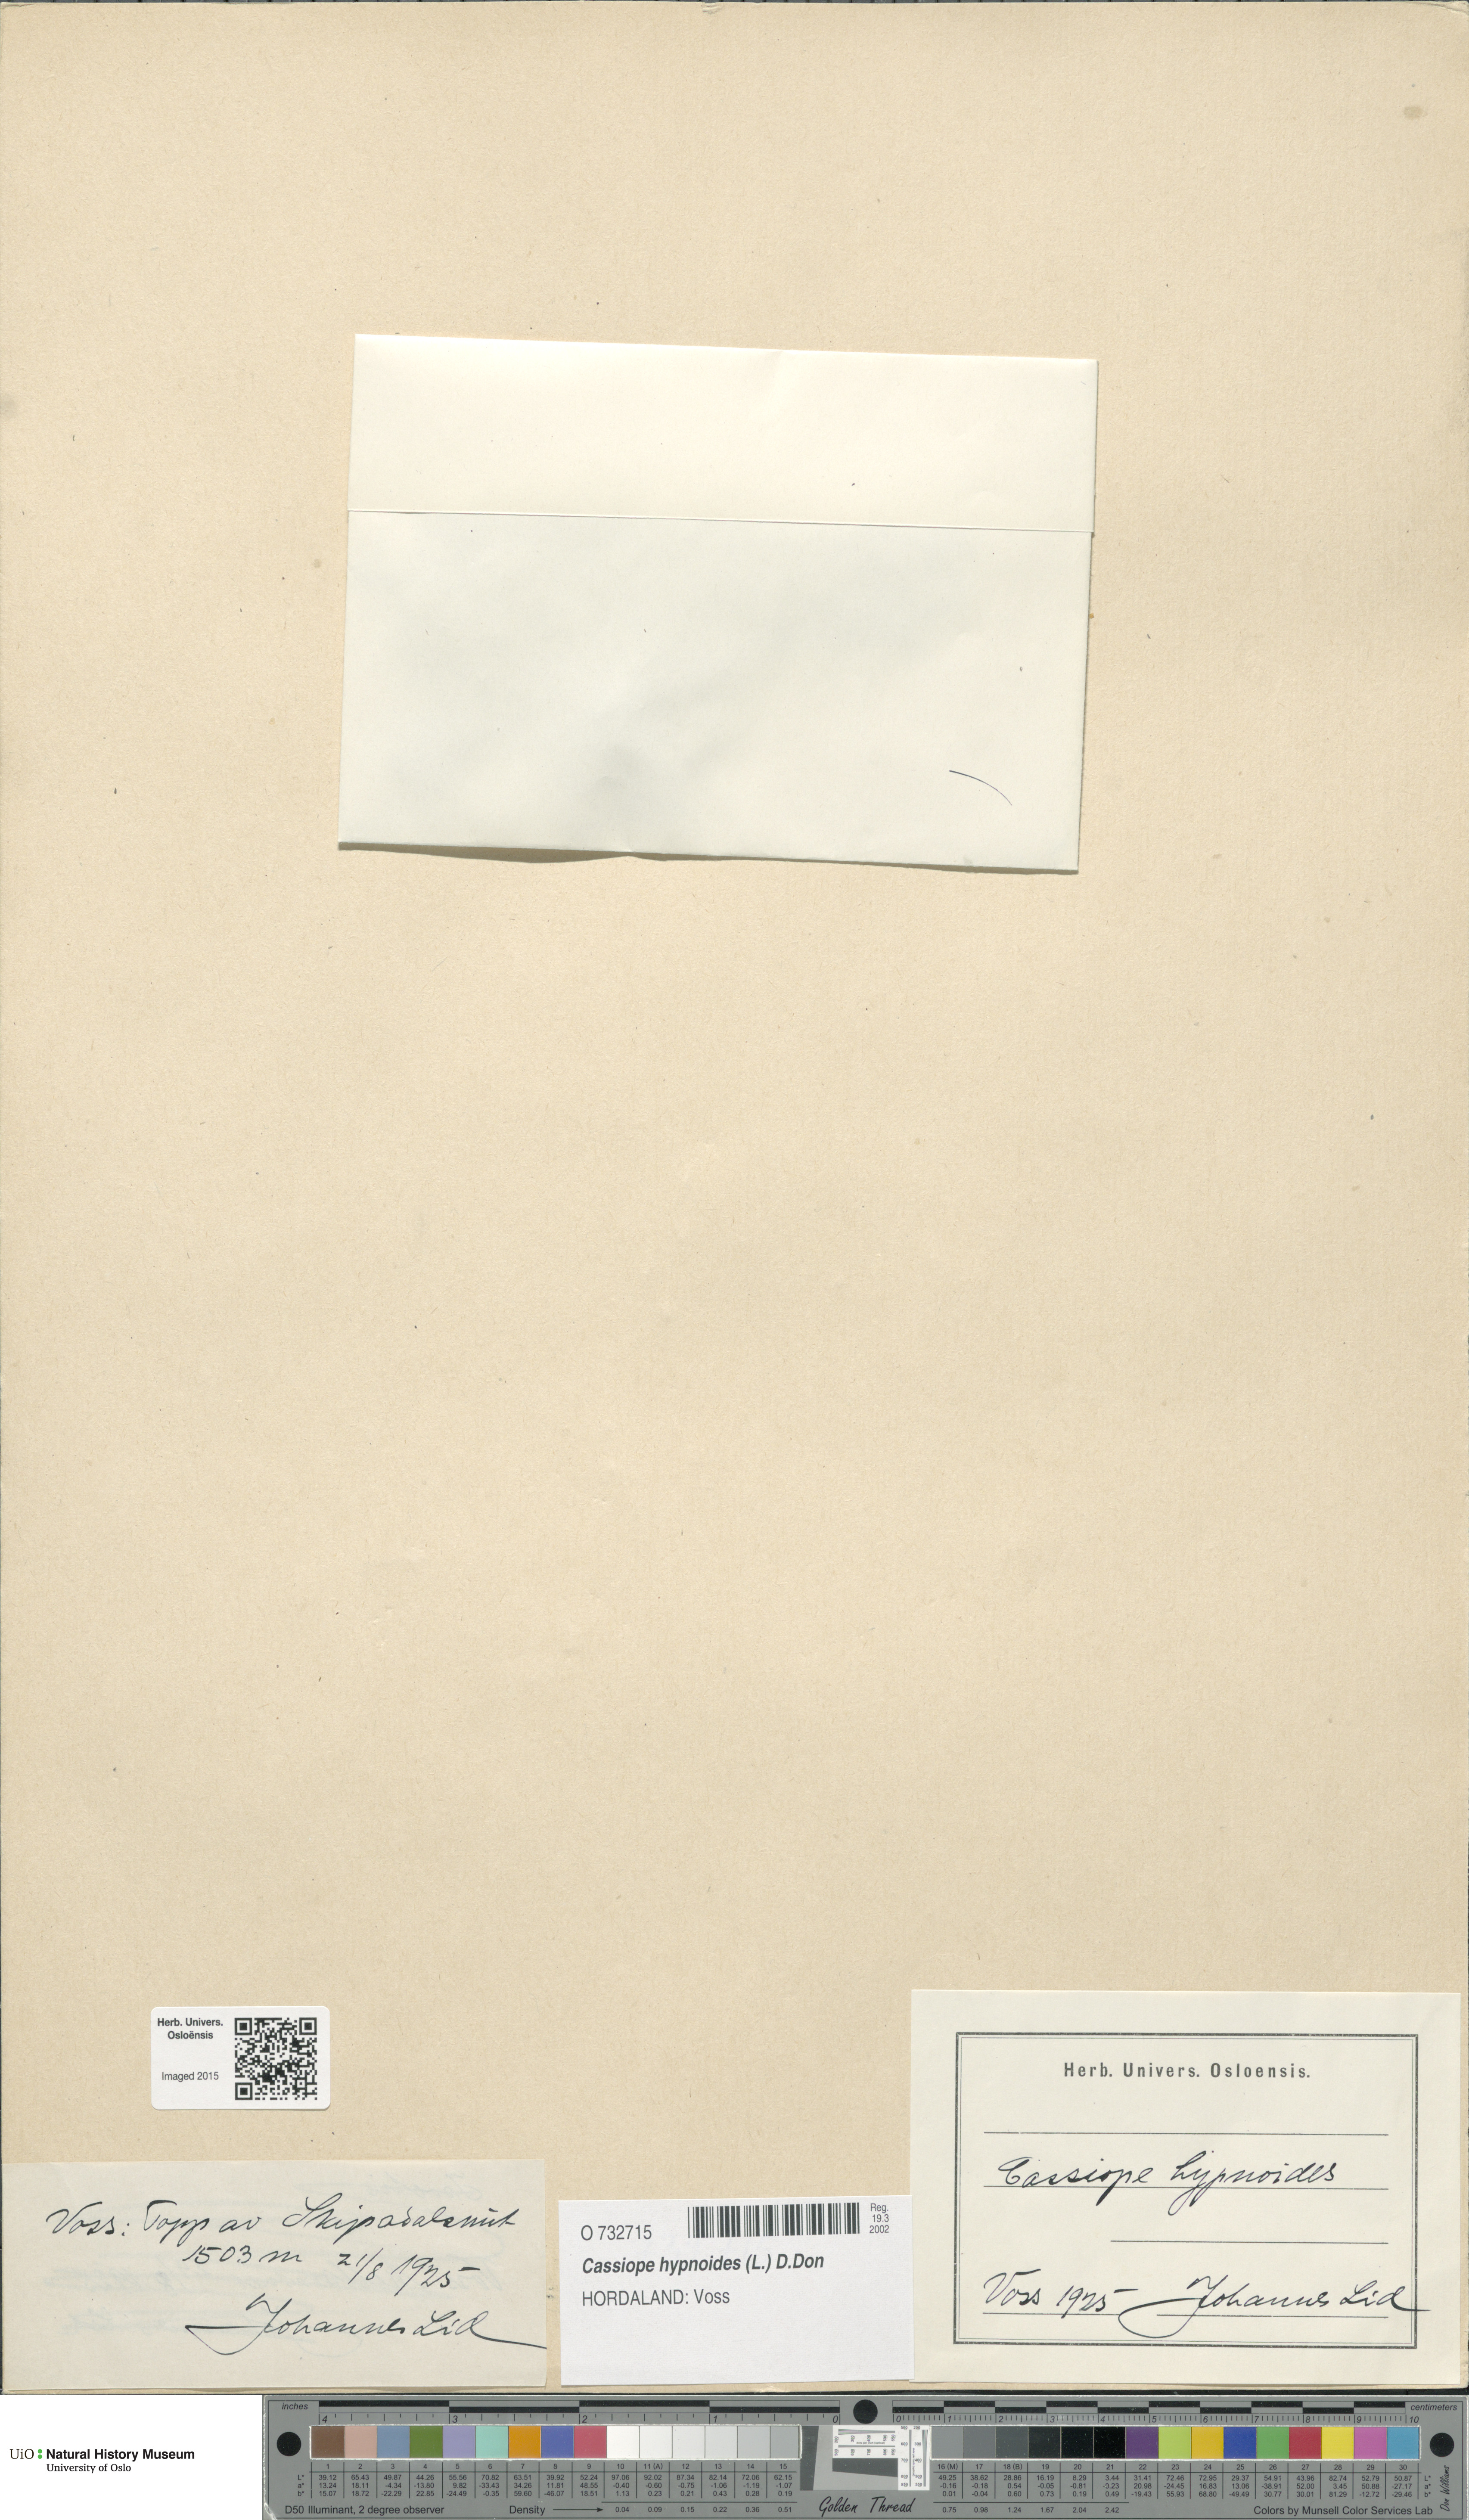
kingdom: Plantae
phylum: Tracheophyta
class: Magnoliopsida
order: Ericales
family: Ericaceae
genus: Harrimanella
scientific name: Harrimanella hypnoides
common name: Moss bell heather
